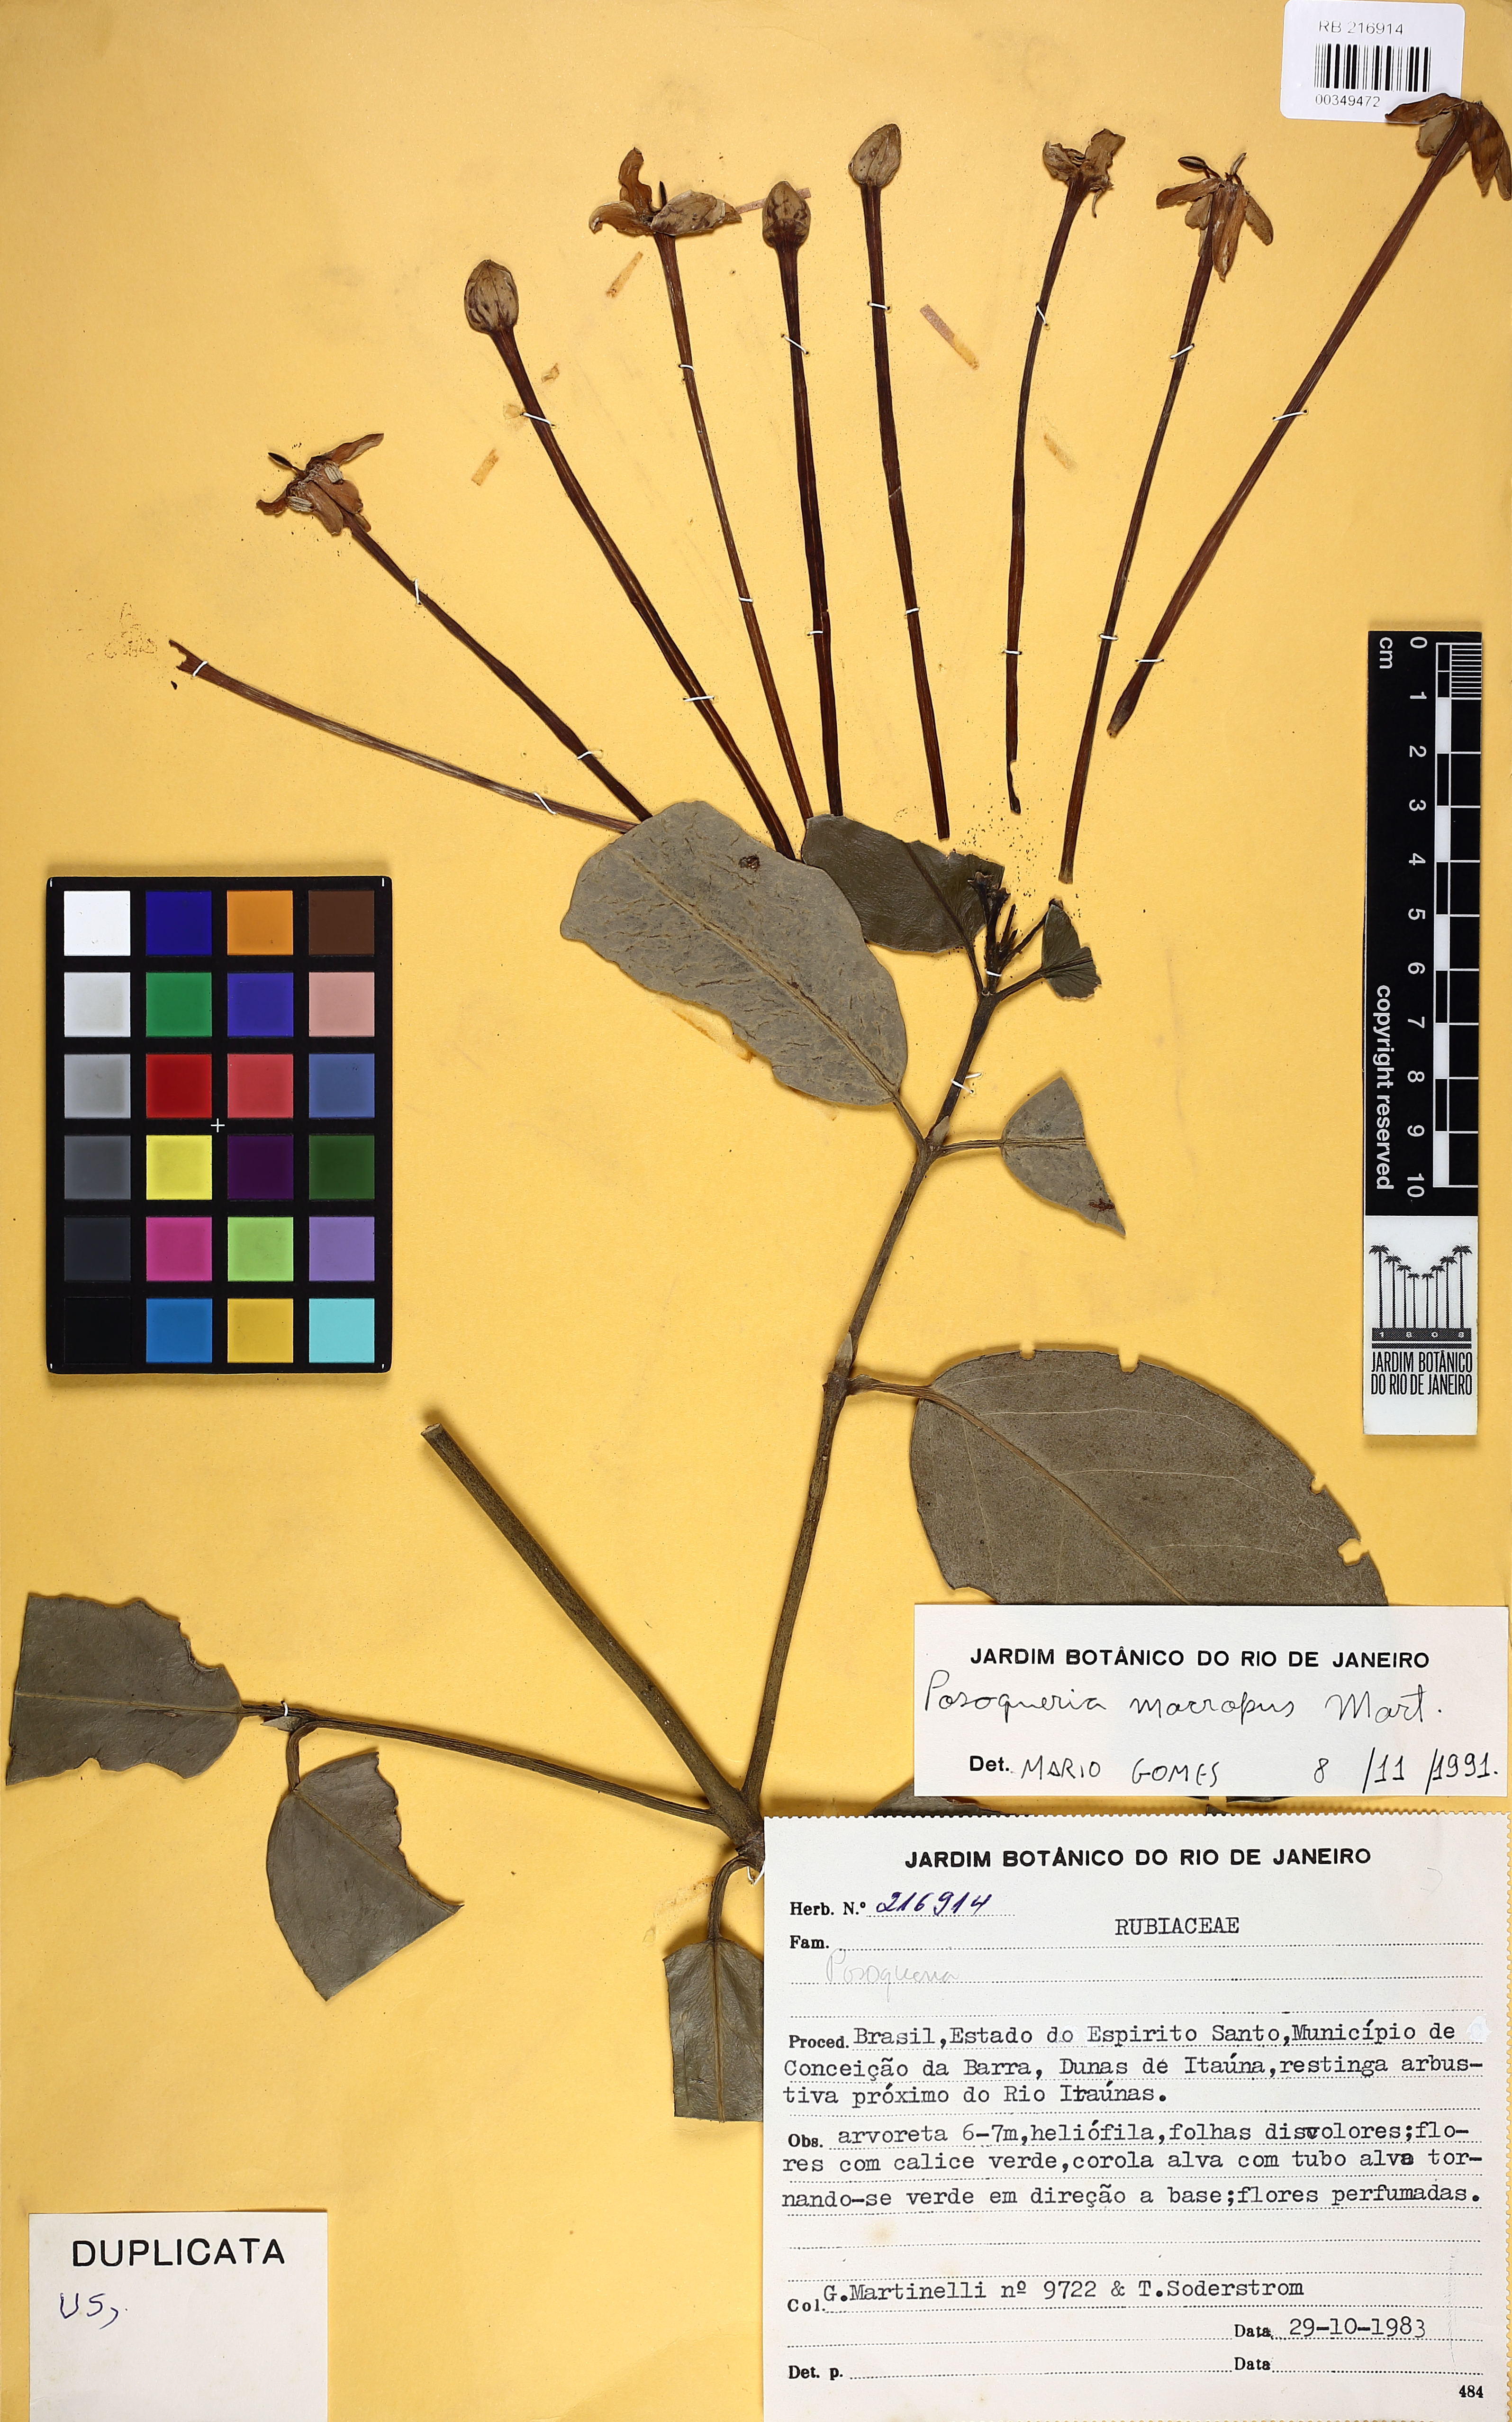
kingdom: Plantae
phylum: Tracheophyta
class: Magnoliopsida
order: Gentianales
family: Rubiaceae
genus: Posoqueria
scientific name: Posoqueria latifolia
